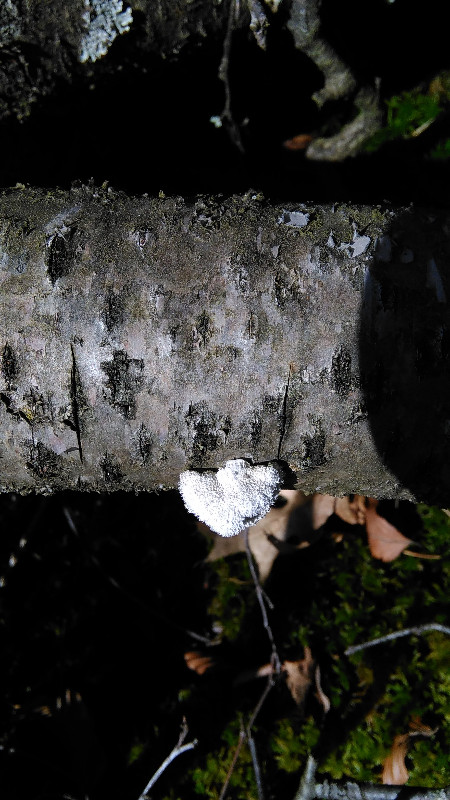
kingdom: Fungi
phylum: Basidiomycota
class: Agaricomycetes
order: Agaricales
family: Schizophyllaceae
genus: Schizophyllum
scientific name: Schizophyllum commune
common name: kløvblad
